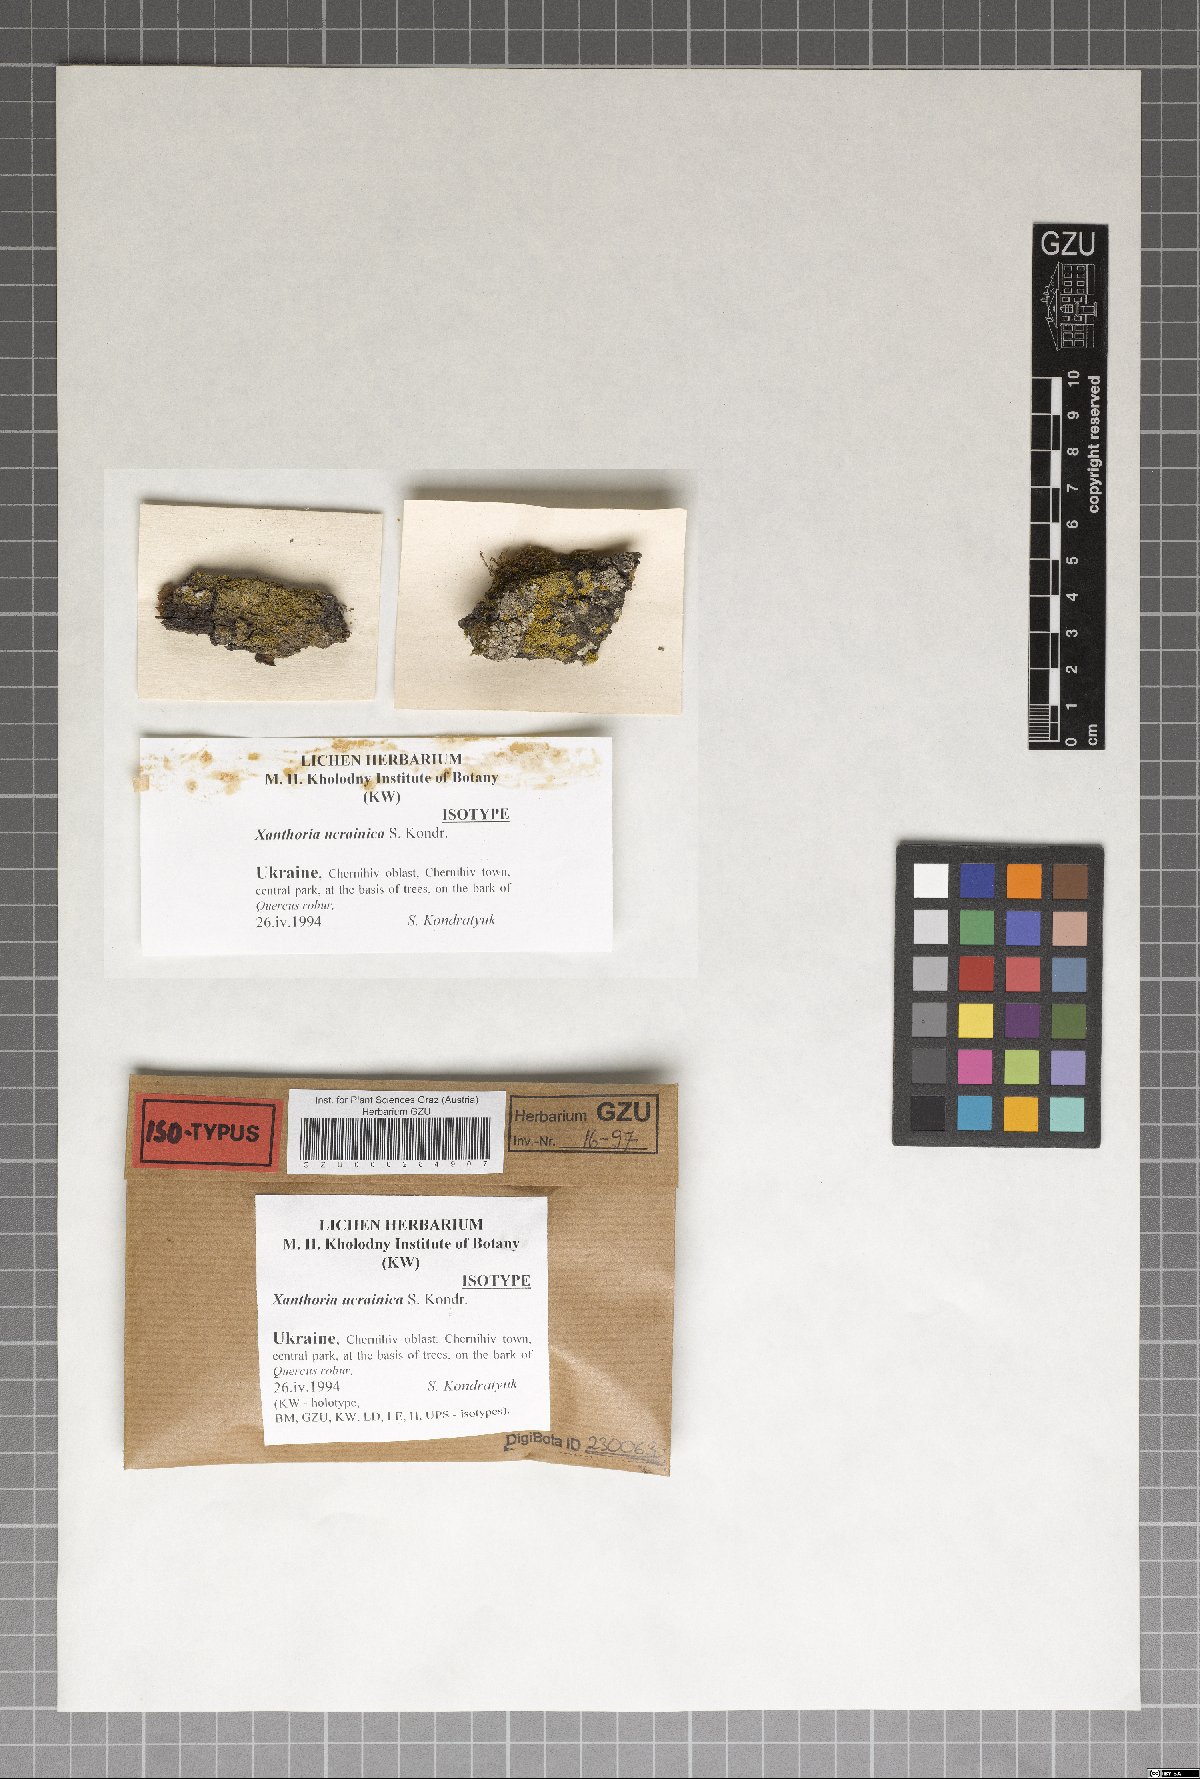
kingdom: Fungi
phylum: Ascomycota
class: Lecanoromycetes
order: Teloschistales
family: Teloschistaceae
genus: Polycauliona
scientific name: Polycauliona ucrainica
